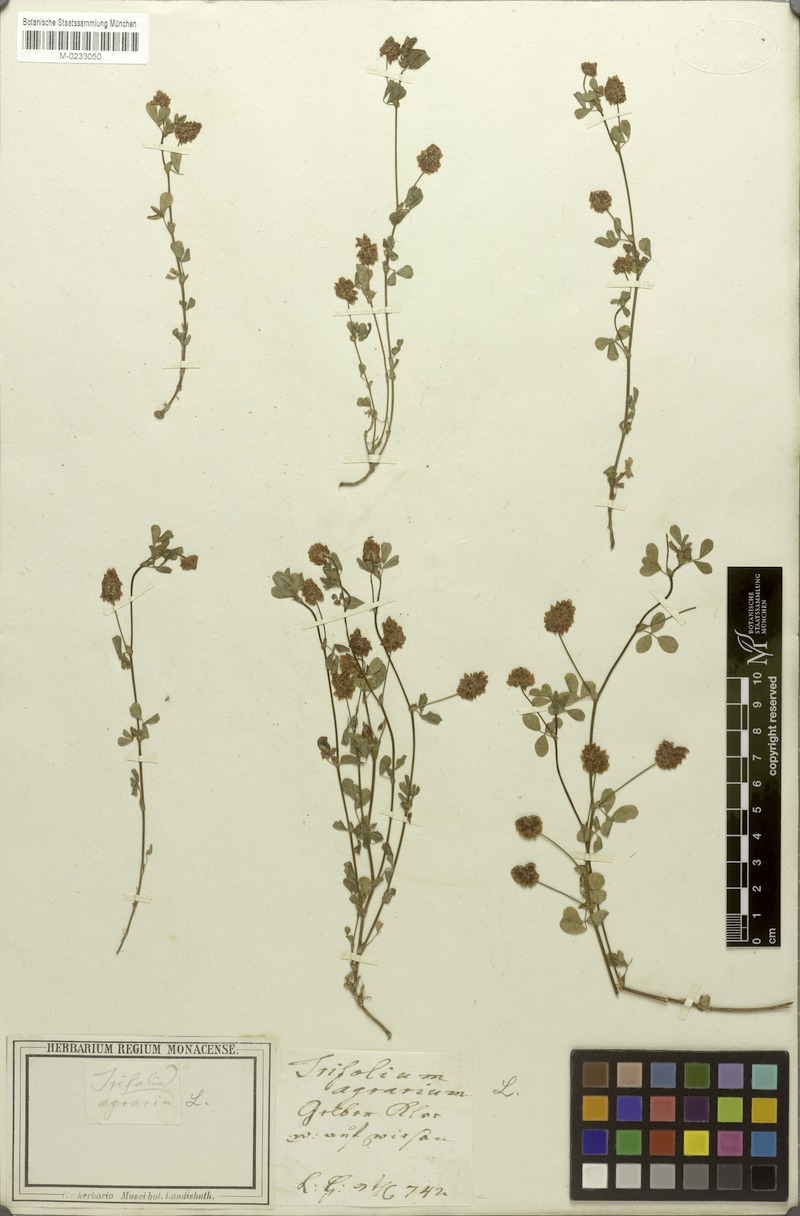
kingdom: Plantae
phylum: Tracheophyta
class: Magnoliopsida
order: Fabales
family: Fabaceae
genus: Trifolium
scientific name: Trifolium campestre
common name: Field clover
